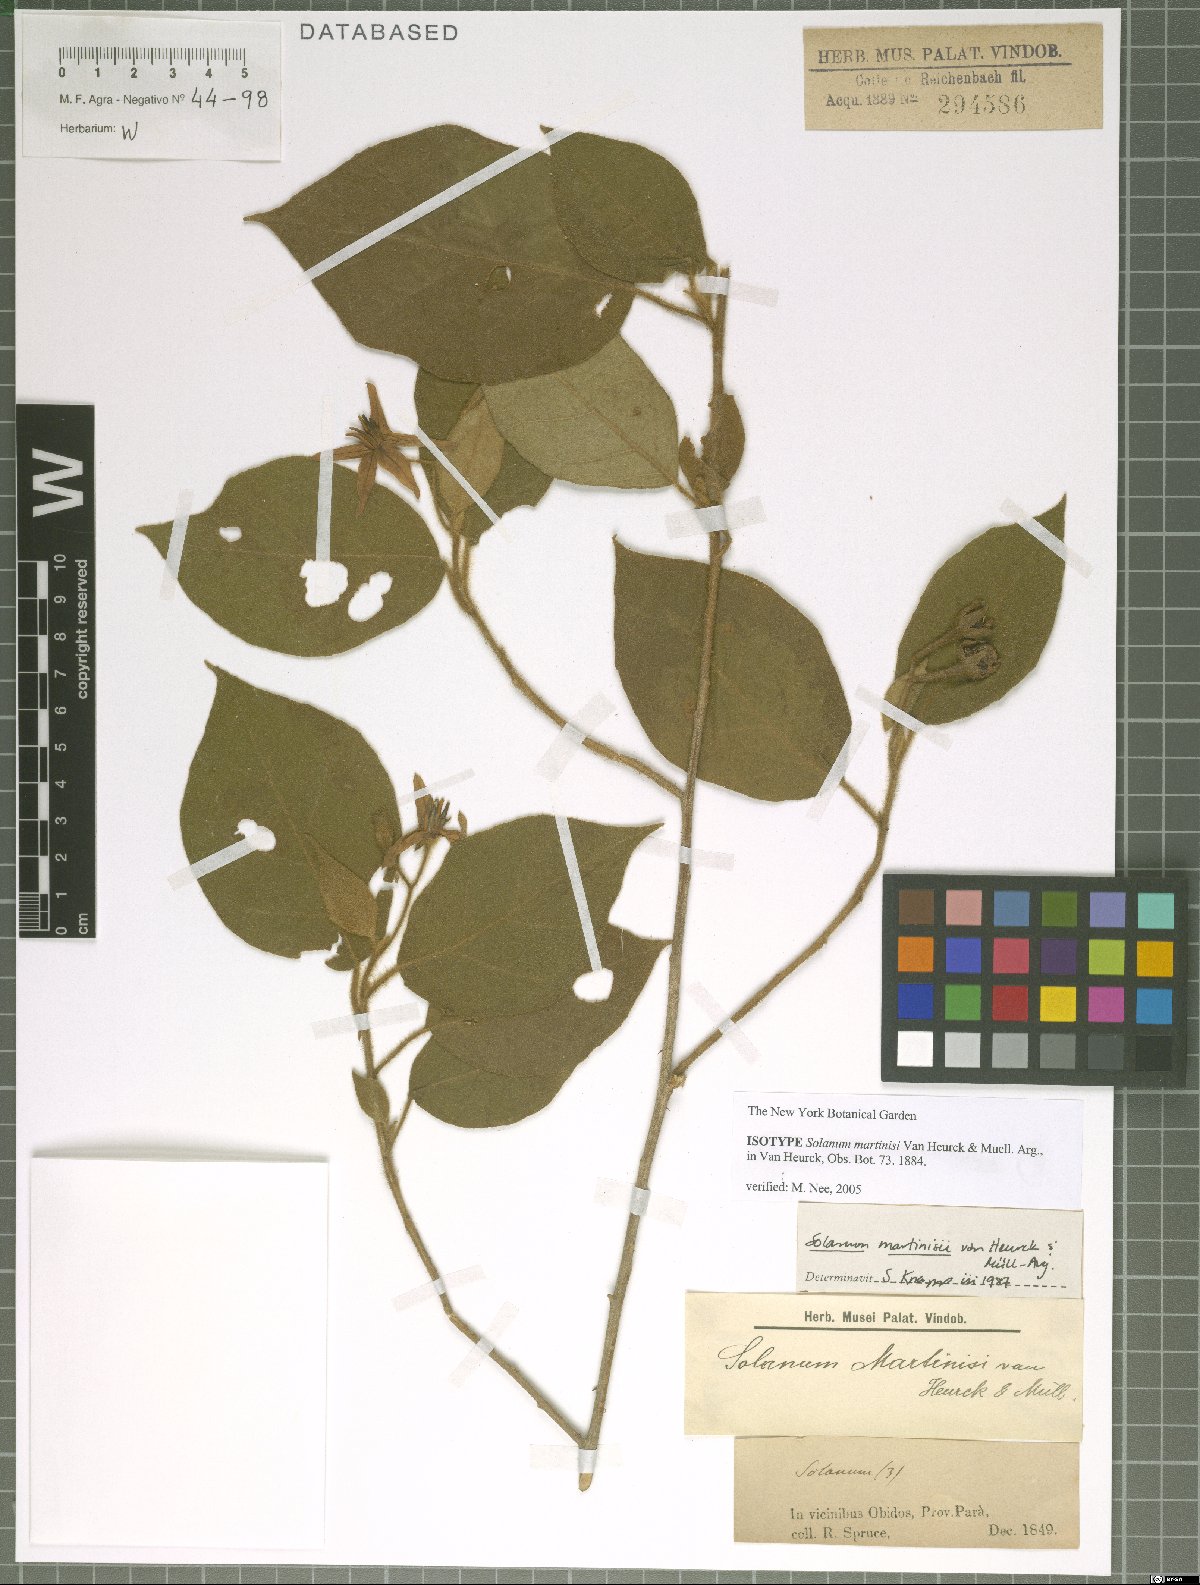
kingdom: Plantae
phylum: Tracheophyta
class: Magnoliopsida
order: Solanales
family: Solanaceae
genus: Solanum
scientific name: Solanum absconditum
